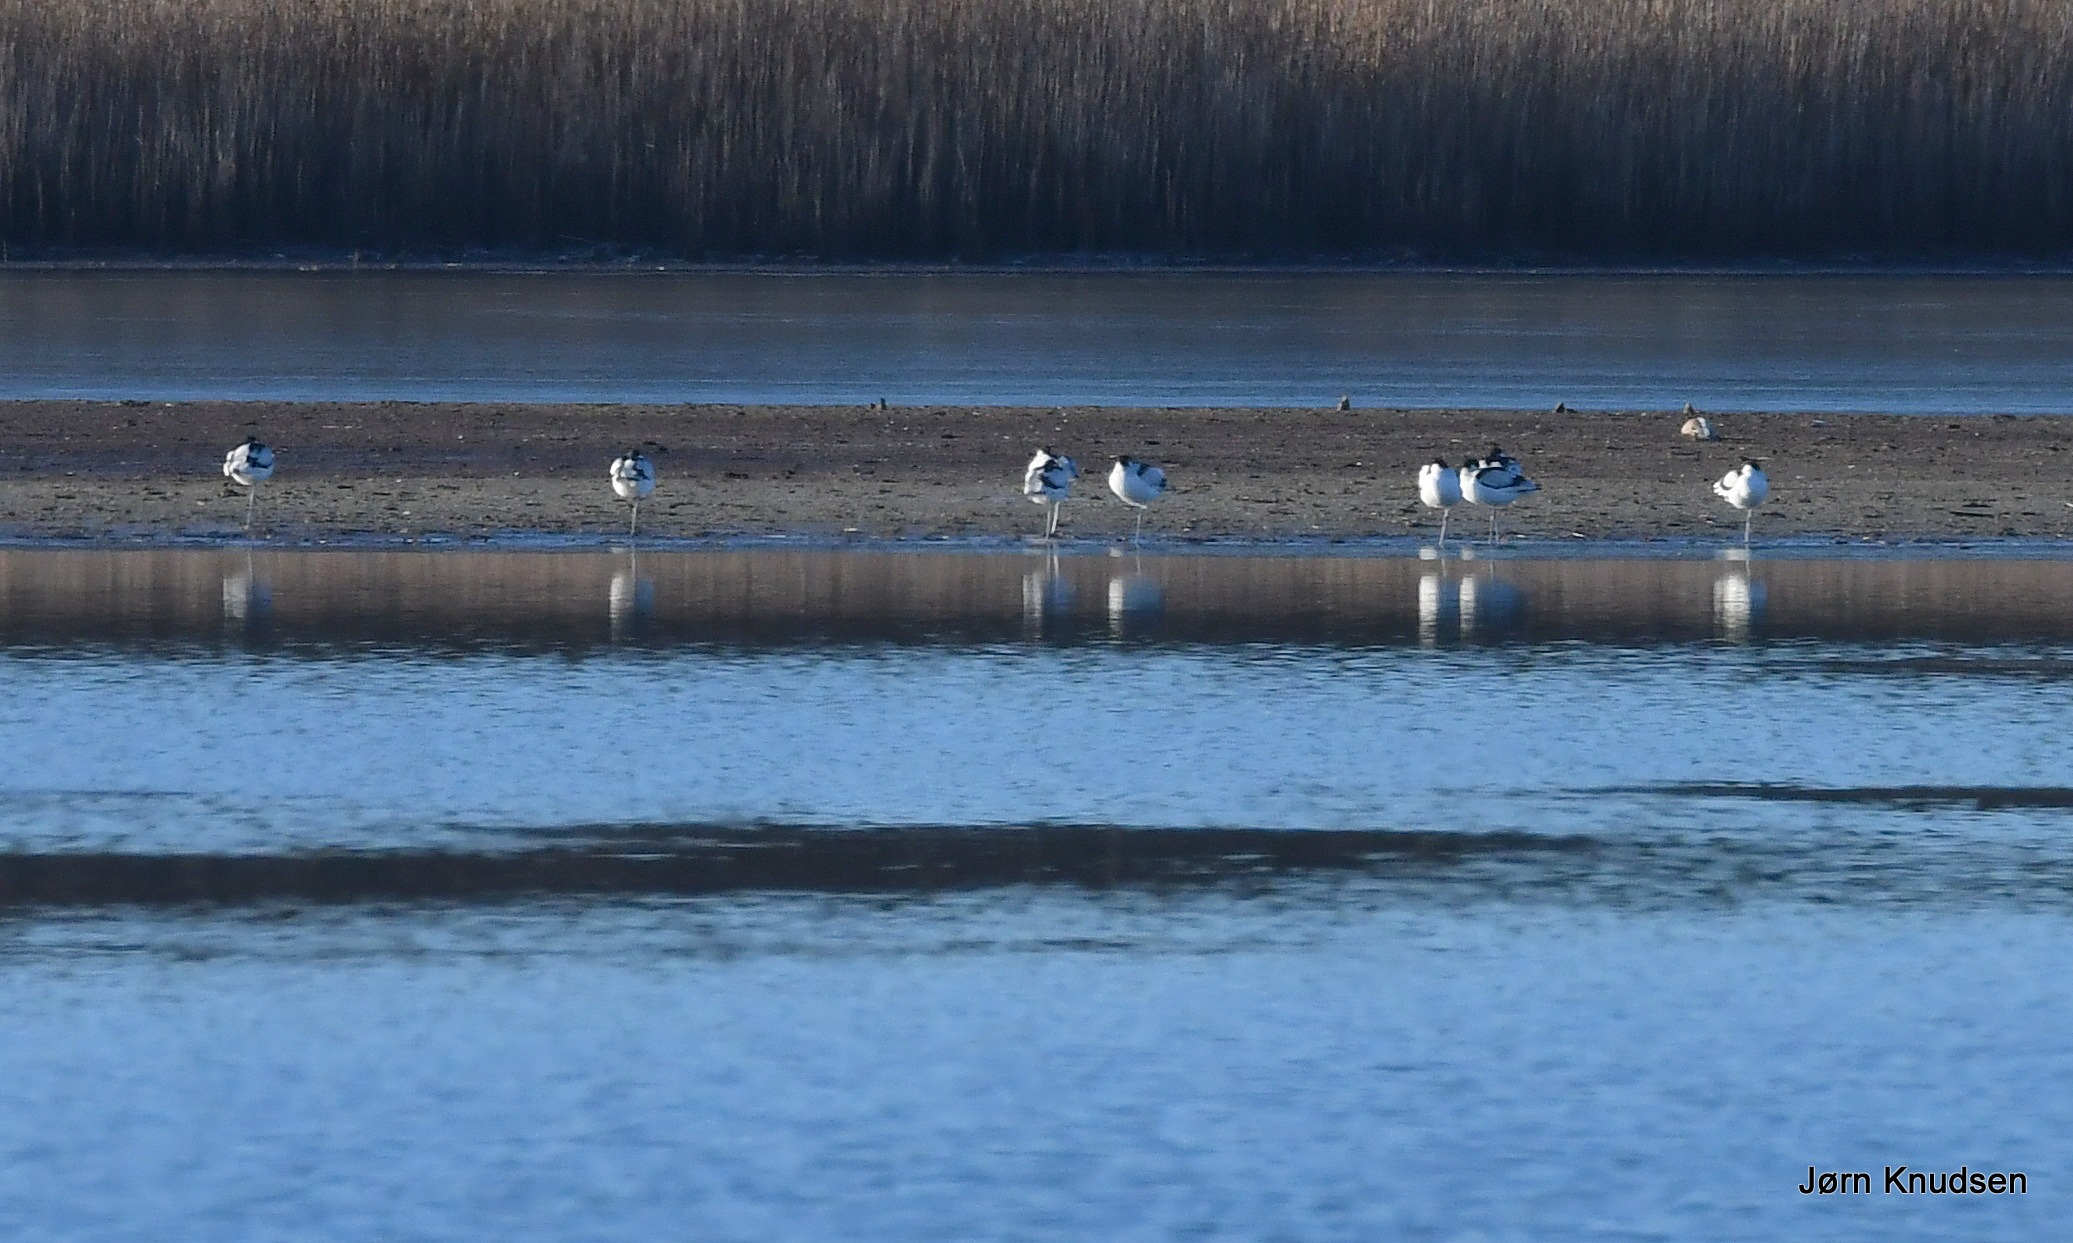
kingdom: Animalia
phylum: Chordata
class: Aves
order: Charadriiformes
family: Recurvirostridae
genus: Recurvirostra
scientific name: Recurvirostra avosetta
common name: Klyde
